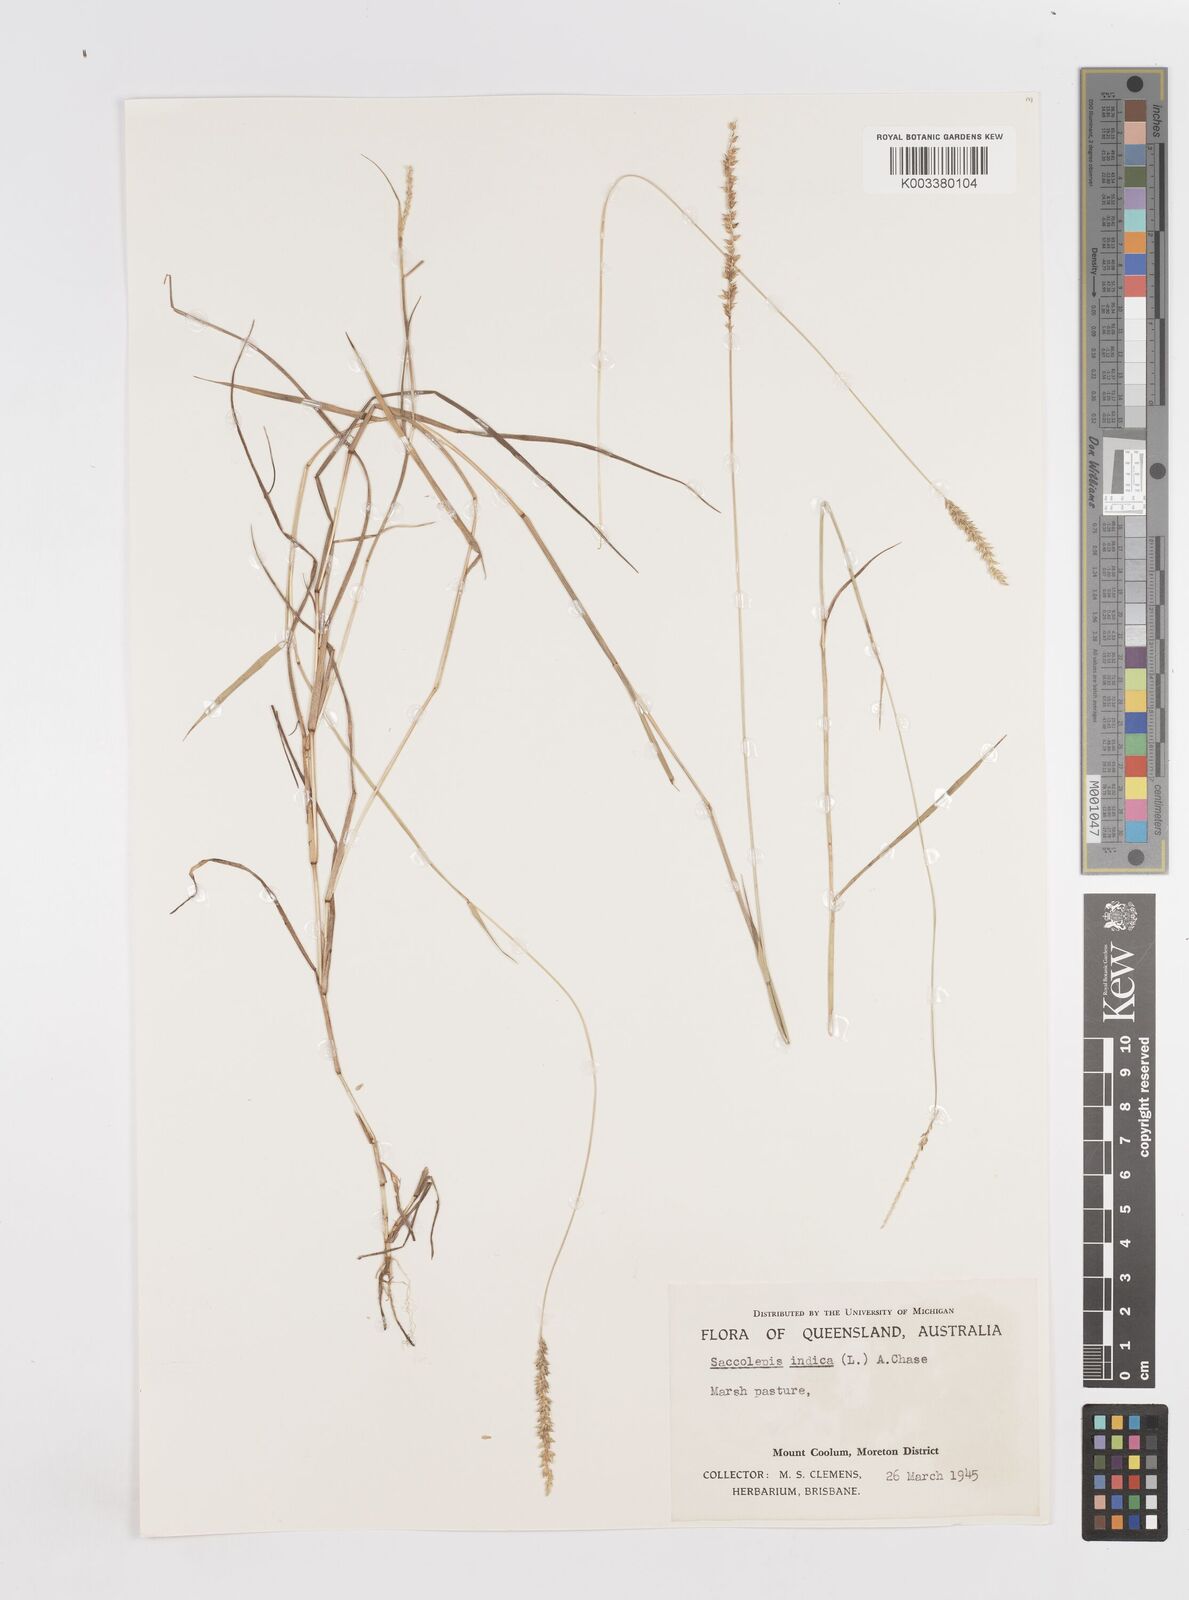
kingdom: Plantae
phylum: Tracheophyta
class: Liliopsida
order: Poales
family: Poaceae
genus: Sacciolepis
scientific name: Sacciolepis indica
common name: Glenwoodgrass
